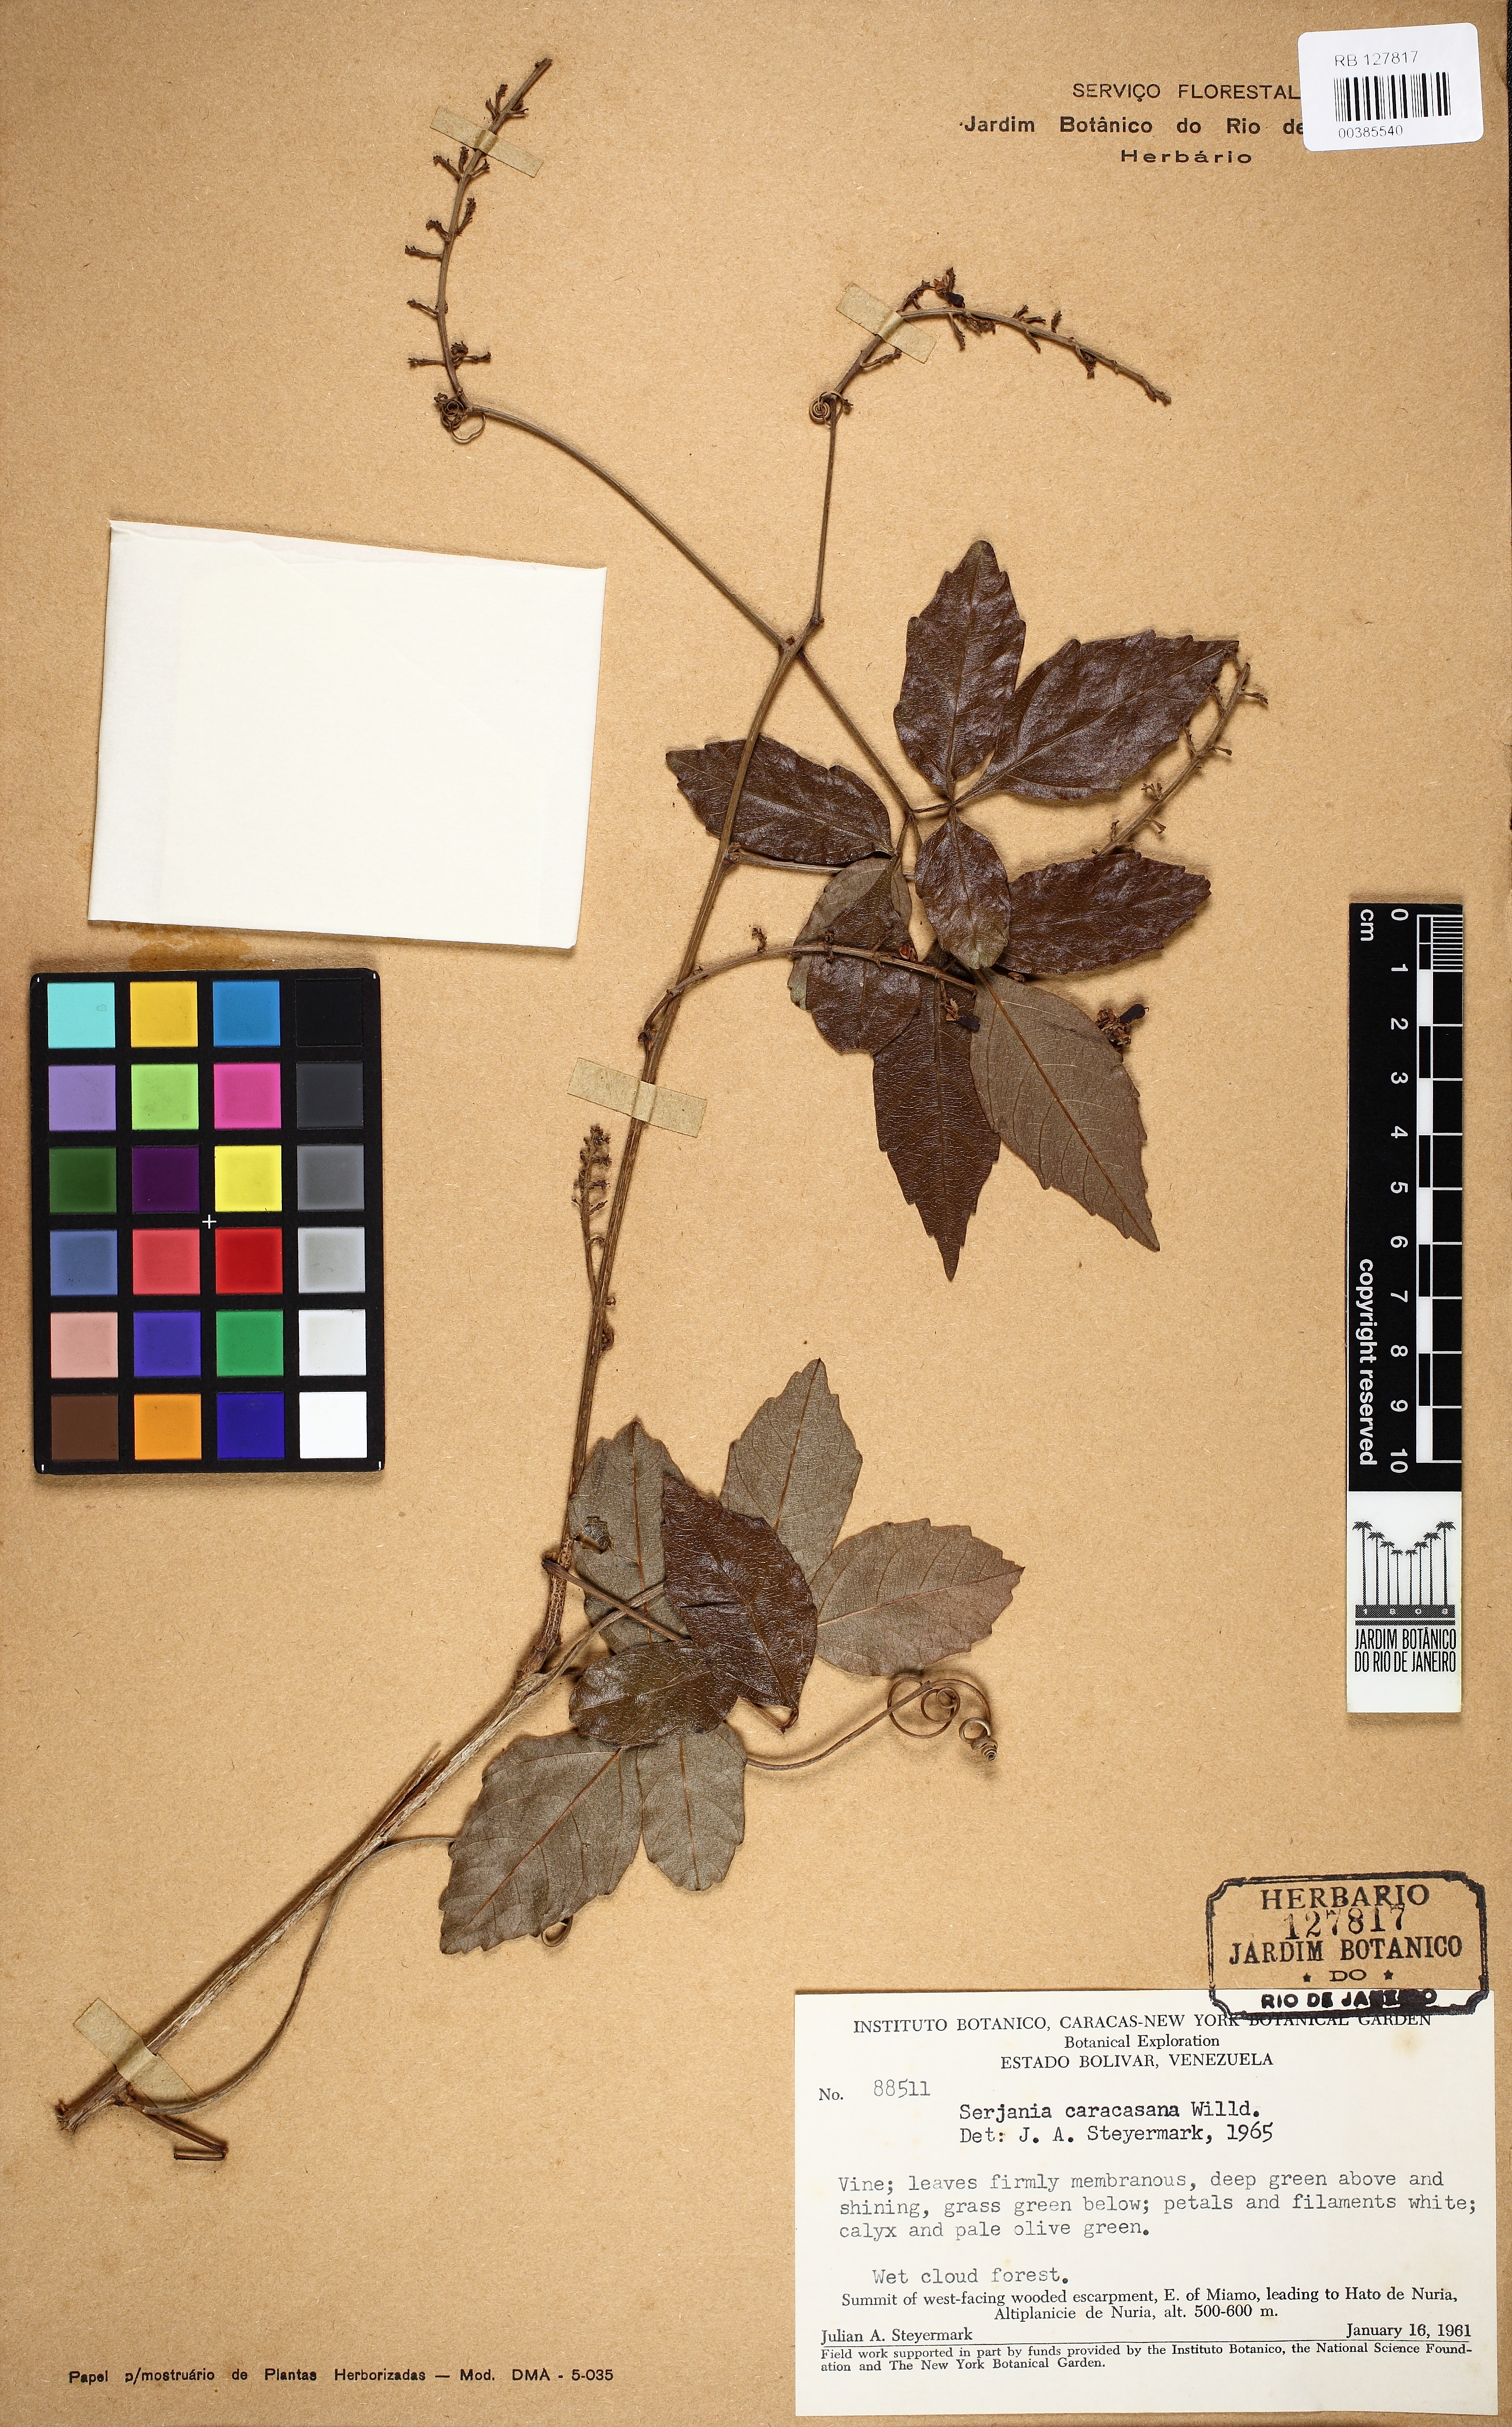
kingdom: Plantae
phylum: Tracheophyta
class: Magnoliopsida
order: Sapindales
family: Sapindaceae
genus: Serjania
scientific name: Serjania caracasana
